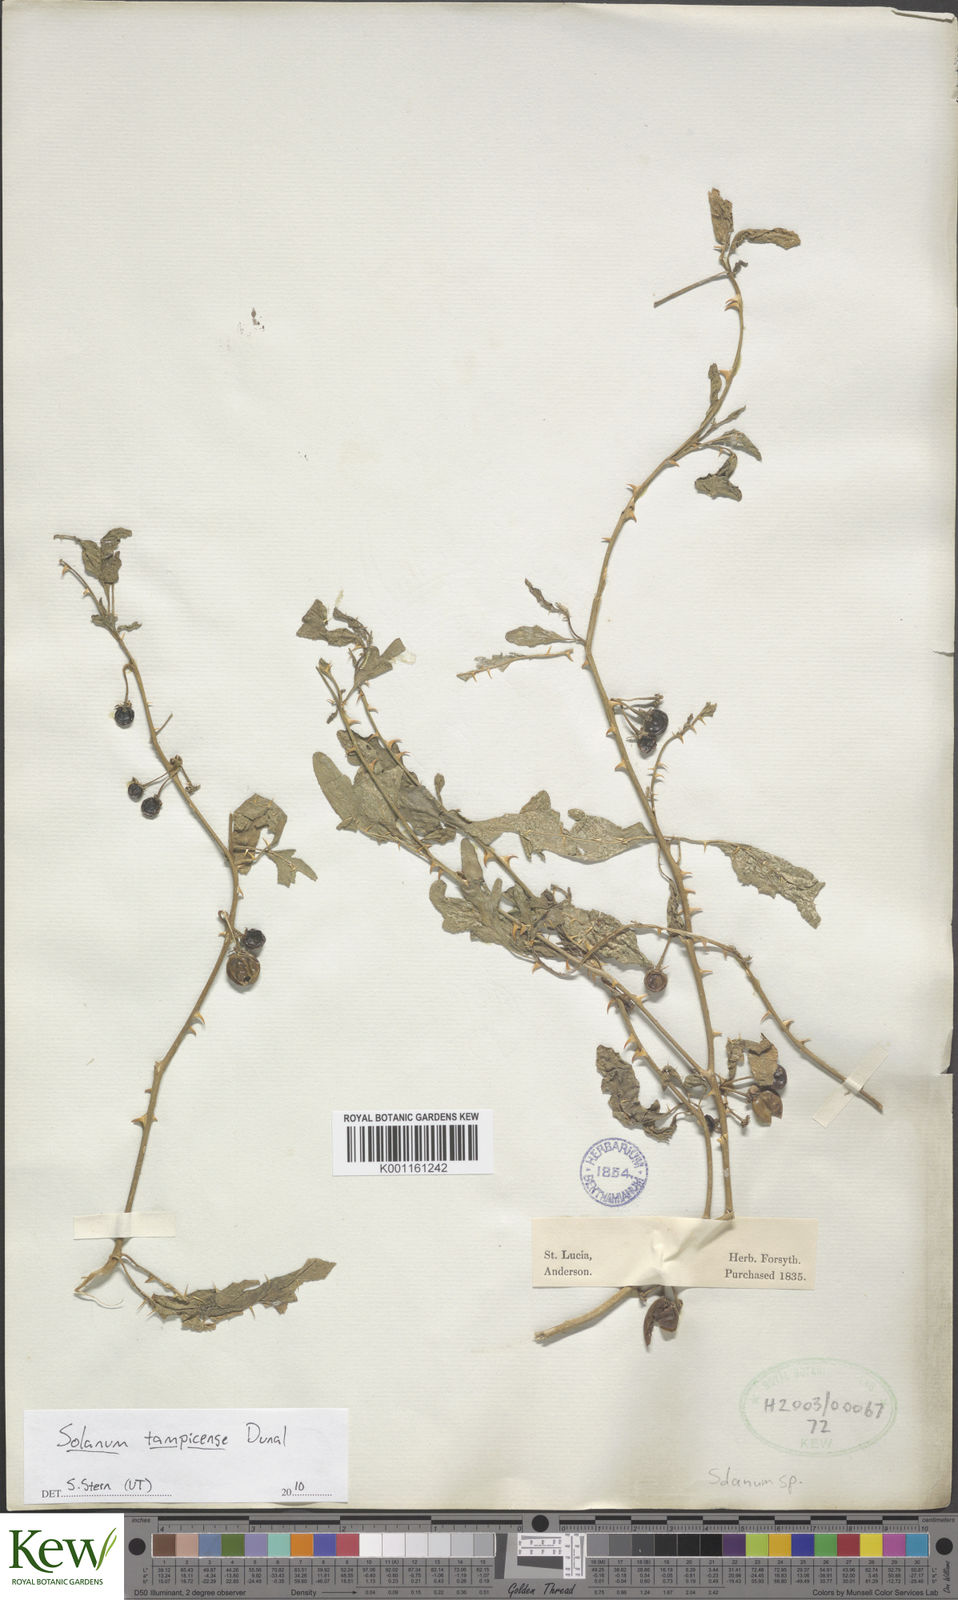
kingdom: Plantae
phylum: Tracheophyta
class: Magnoliopsida
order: Solanales
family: Solanaceae
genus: Solanum
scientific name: Solanum tampicense
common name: Scrambling nightshade
